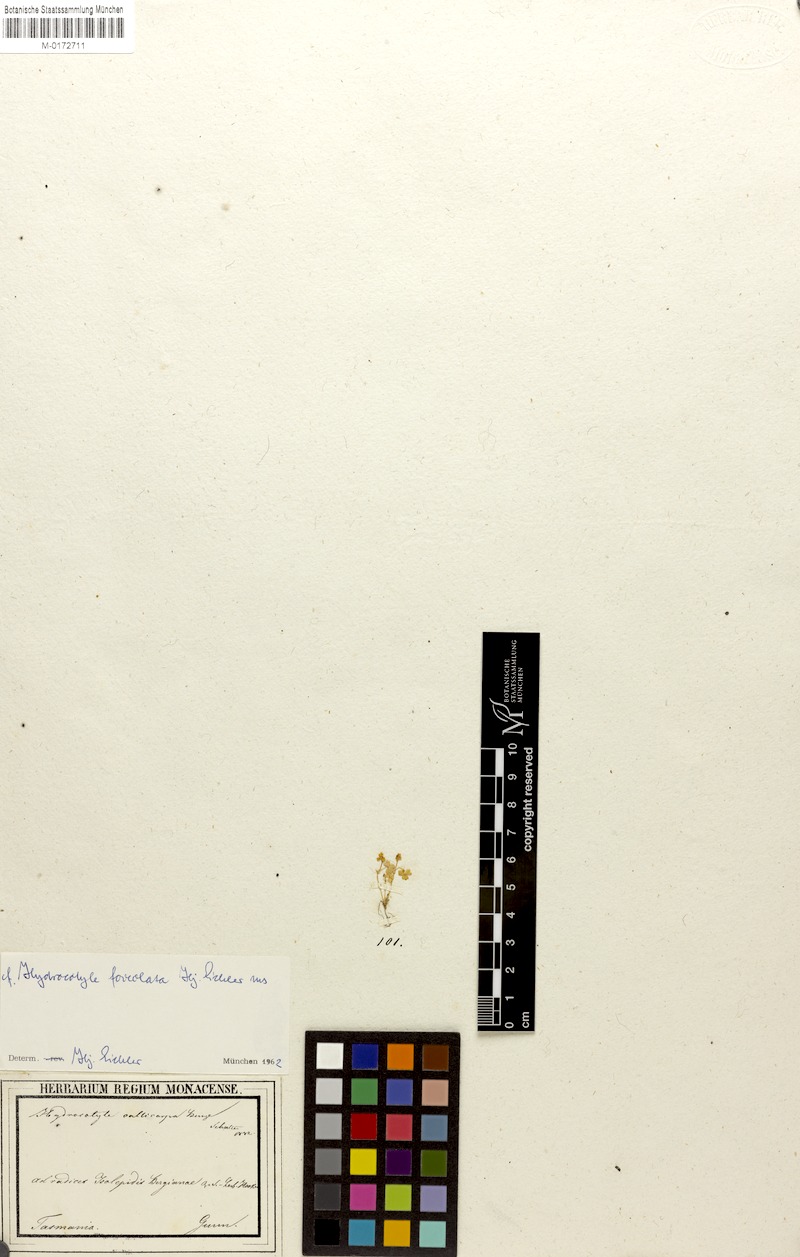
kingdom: Plantae
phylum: Tracheophyta
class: Magnoliopsida
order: Apiales
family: Araliaceae
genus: Hydrocotyle
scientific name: Hydrocotyle foveolata
